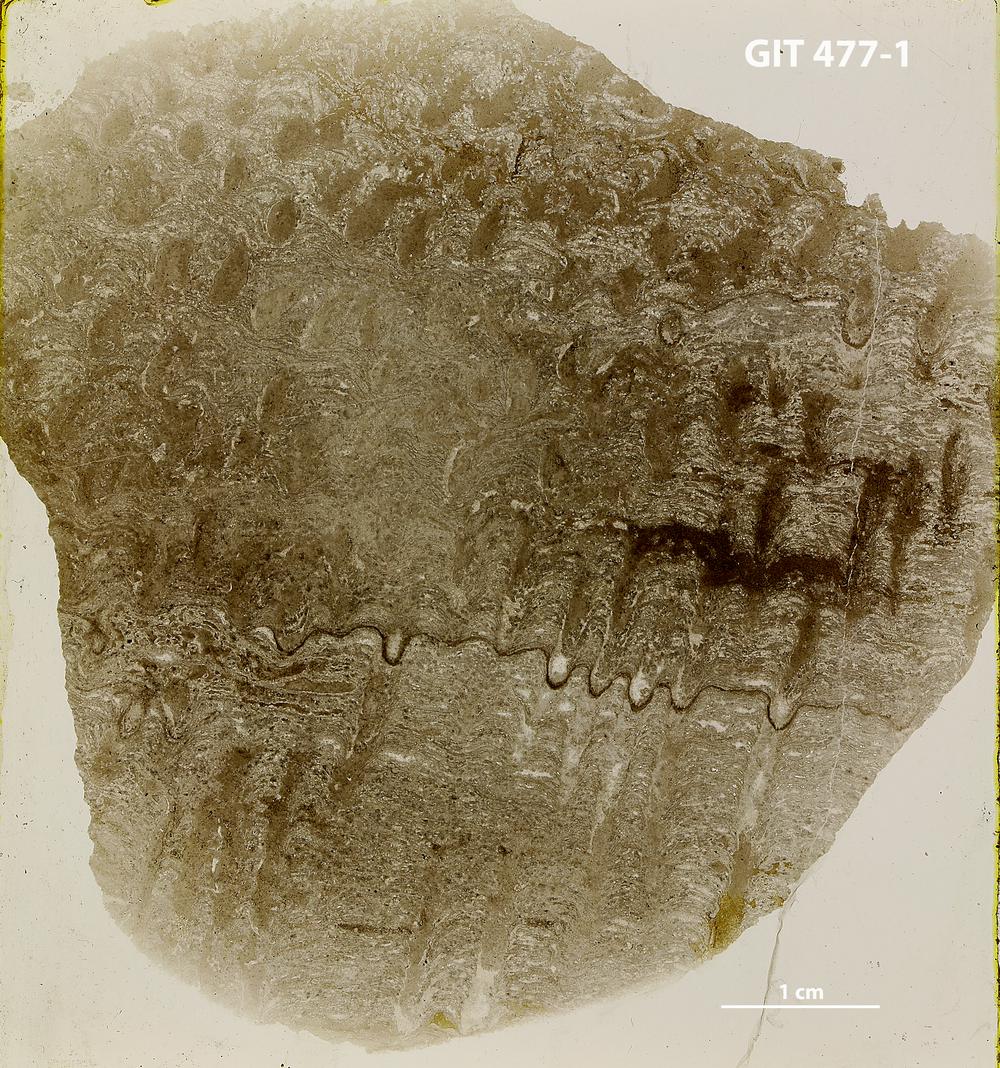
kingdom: Animalia
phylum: Porifera
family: Rosenellidae
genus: Pseudostylodictyon
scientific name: Pseudostylodictyon
